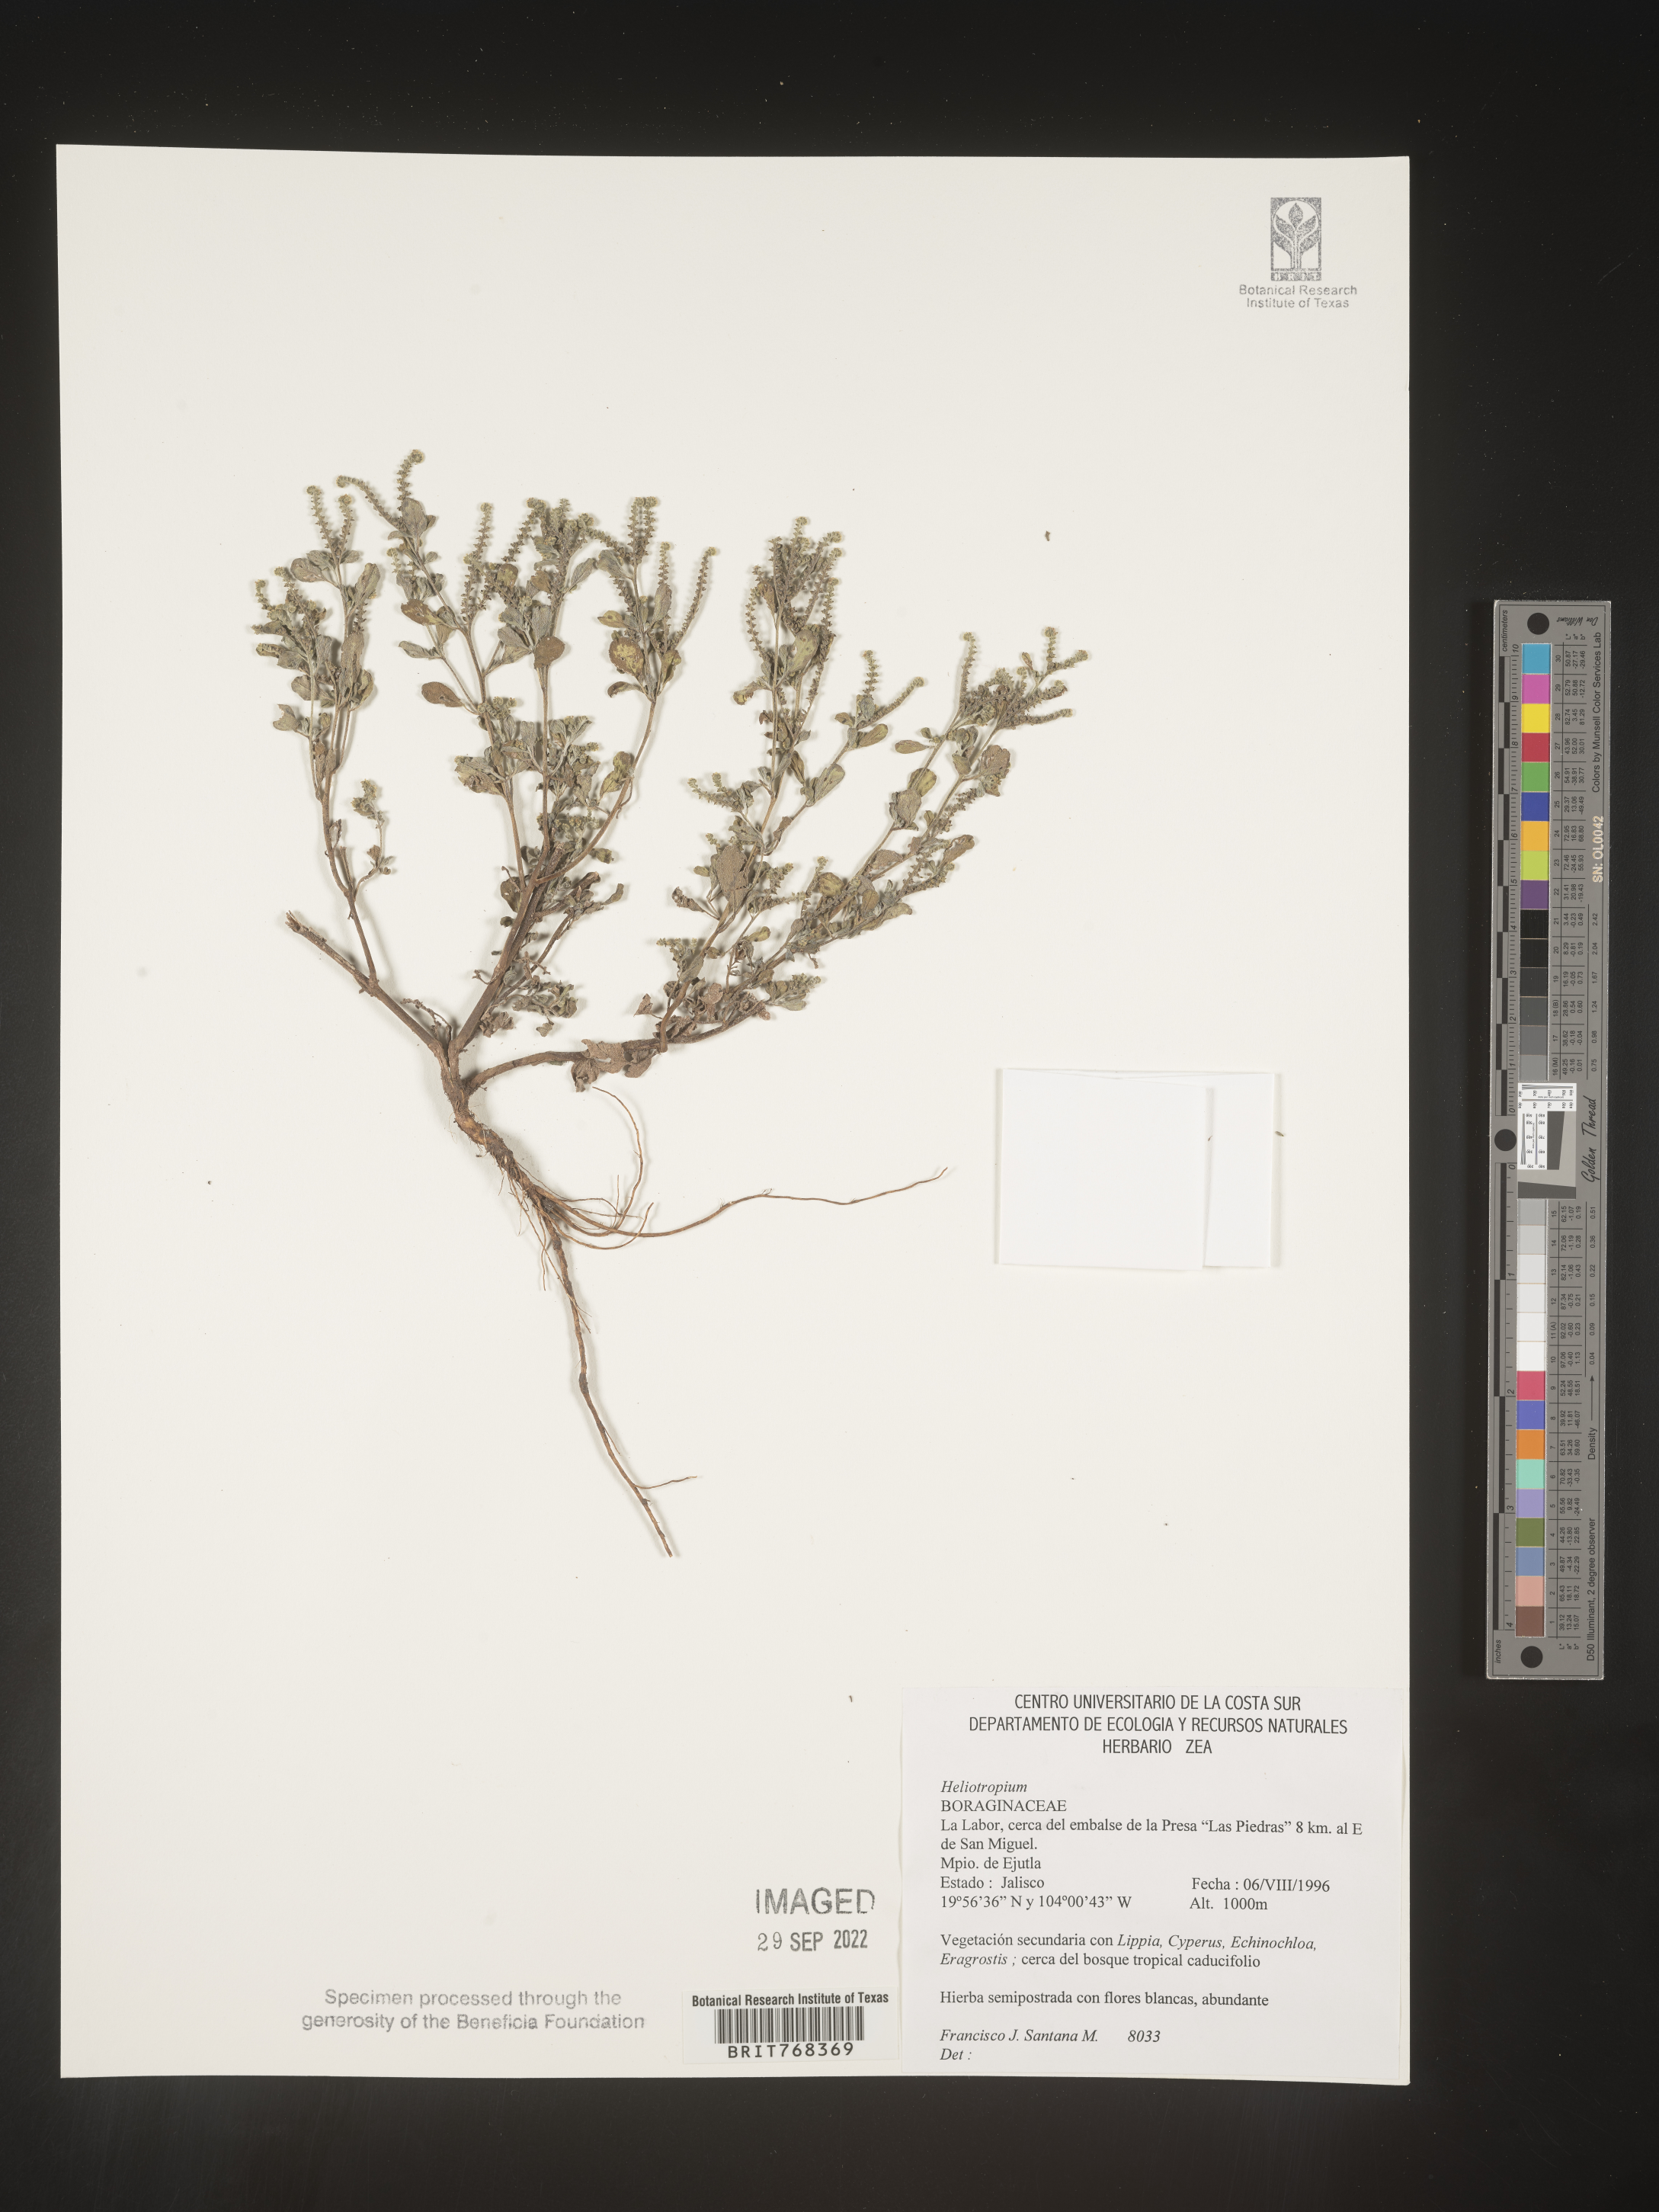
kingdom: Plantae
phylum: Tracheophyta
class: Magnoliopsida
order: Boraginales
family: Heliotropiaceae
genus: Heliotropium
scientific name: Heliotropium
